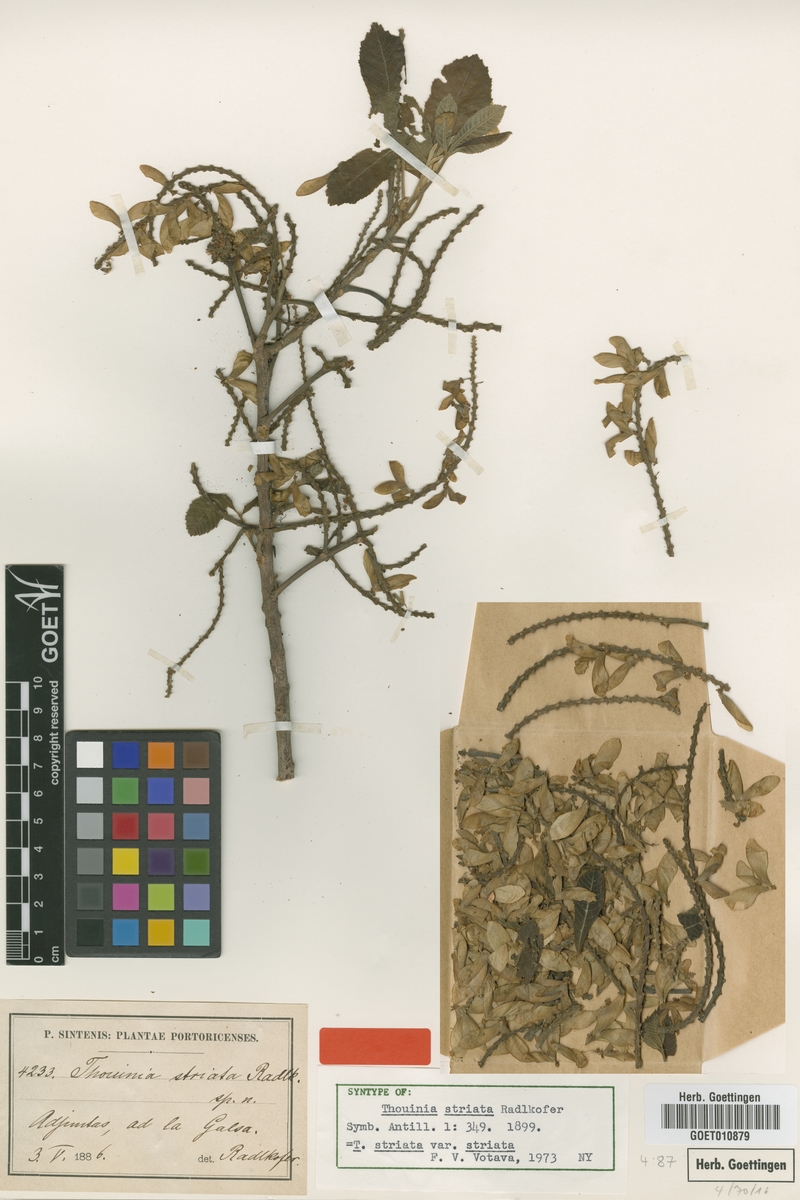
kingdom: Plantae
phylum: Tracheophyta
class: Magnoliopsida
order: Sapindales
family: Sapindaceae
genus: Thouinia
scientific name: Thouinia striata
